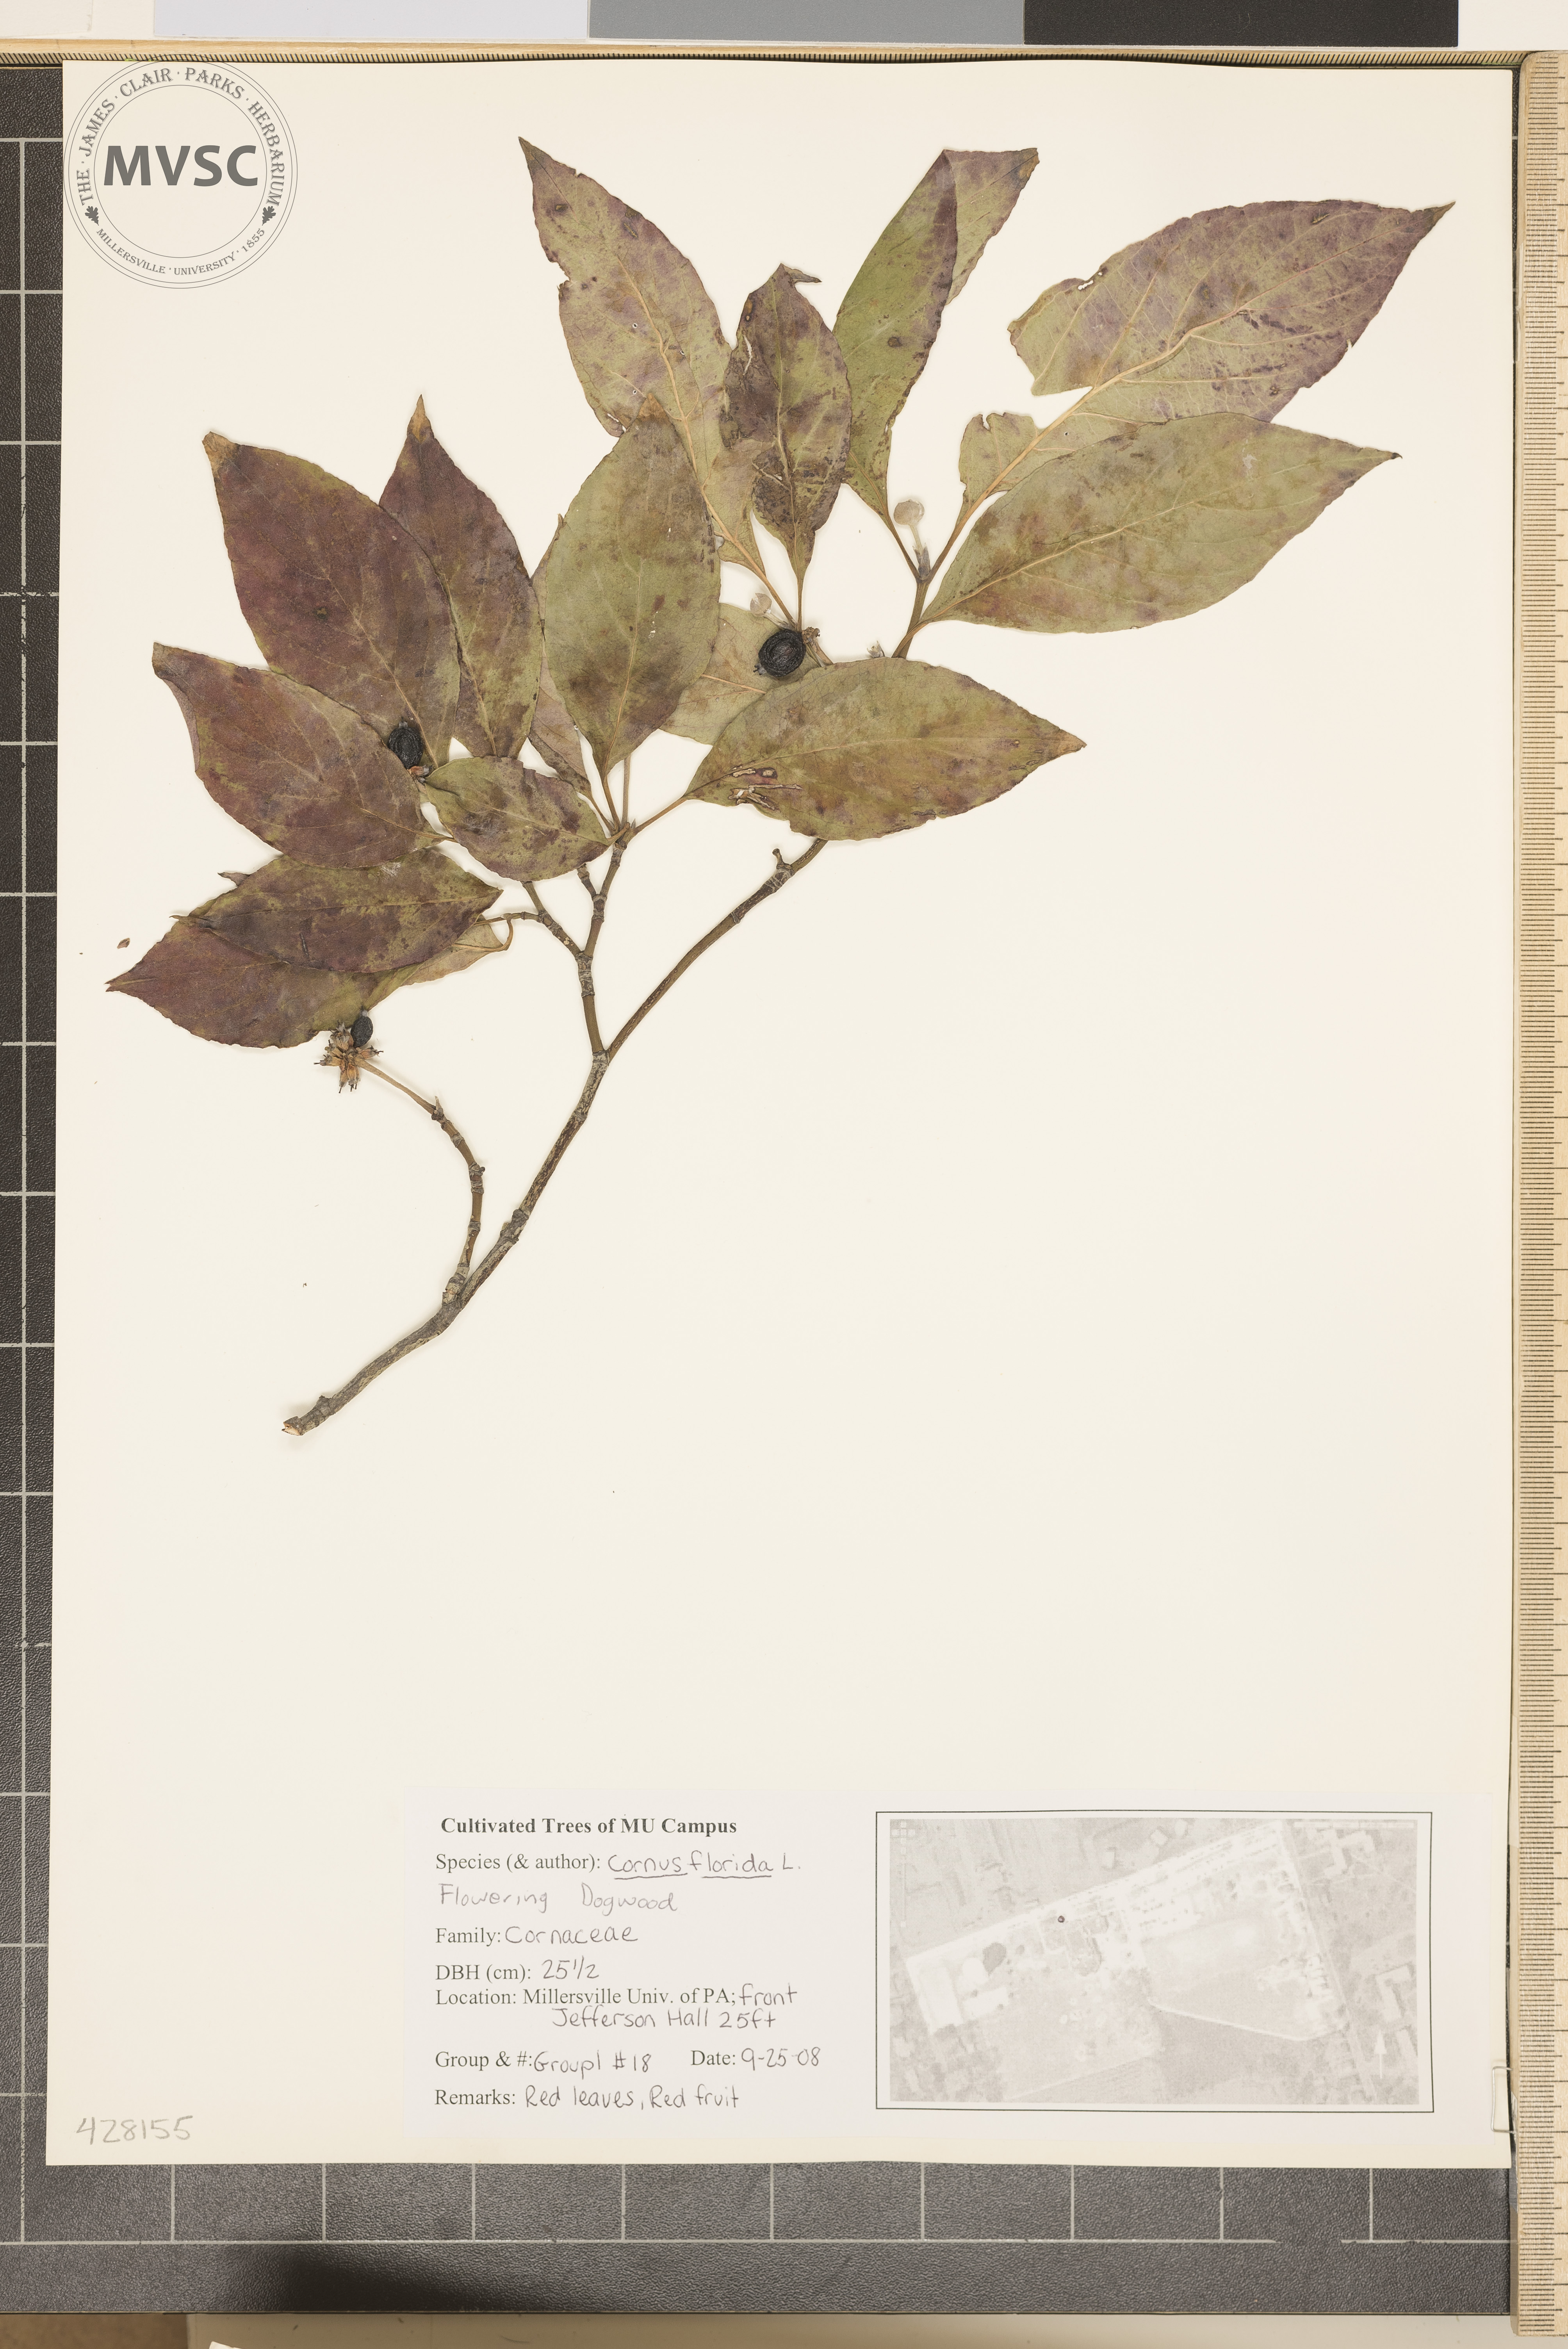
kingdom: Plantae
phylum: Tracheophyta
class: Magnoliopsida
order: Cornales
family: Cornaceae
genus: Cornus
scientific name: Cornus florida
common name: Flowering Dogwood
